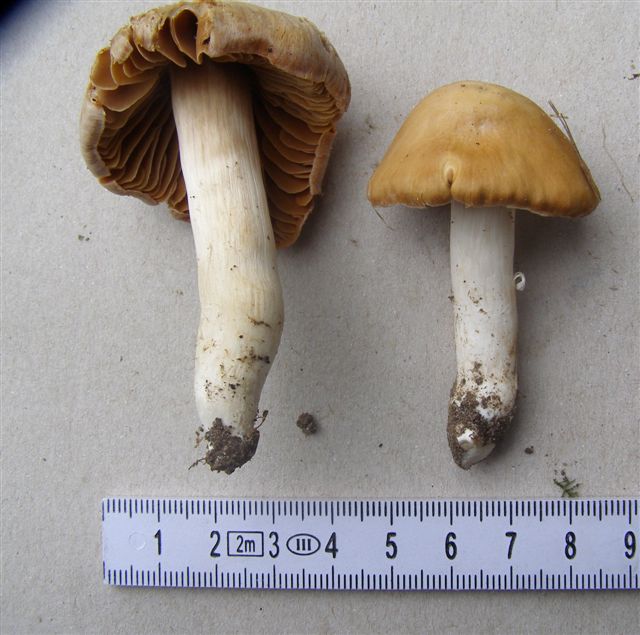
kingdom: Fungi
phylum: Basidiomycota
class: Agaricomycetes
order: Agaricales
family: Cortinariaceae
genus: Cortinarius
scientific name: Cortinarius
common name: jod-slørhat
